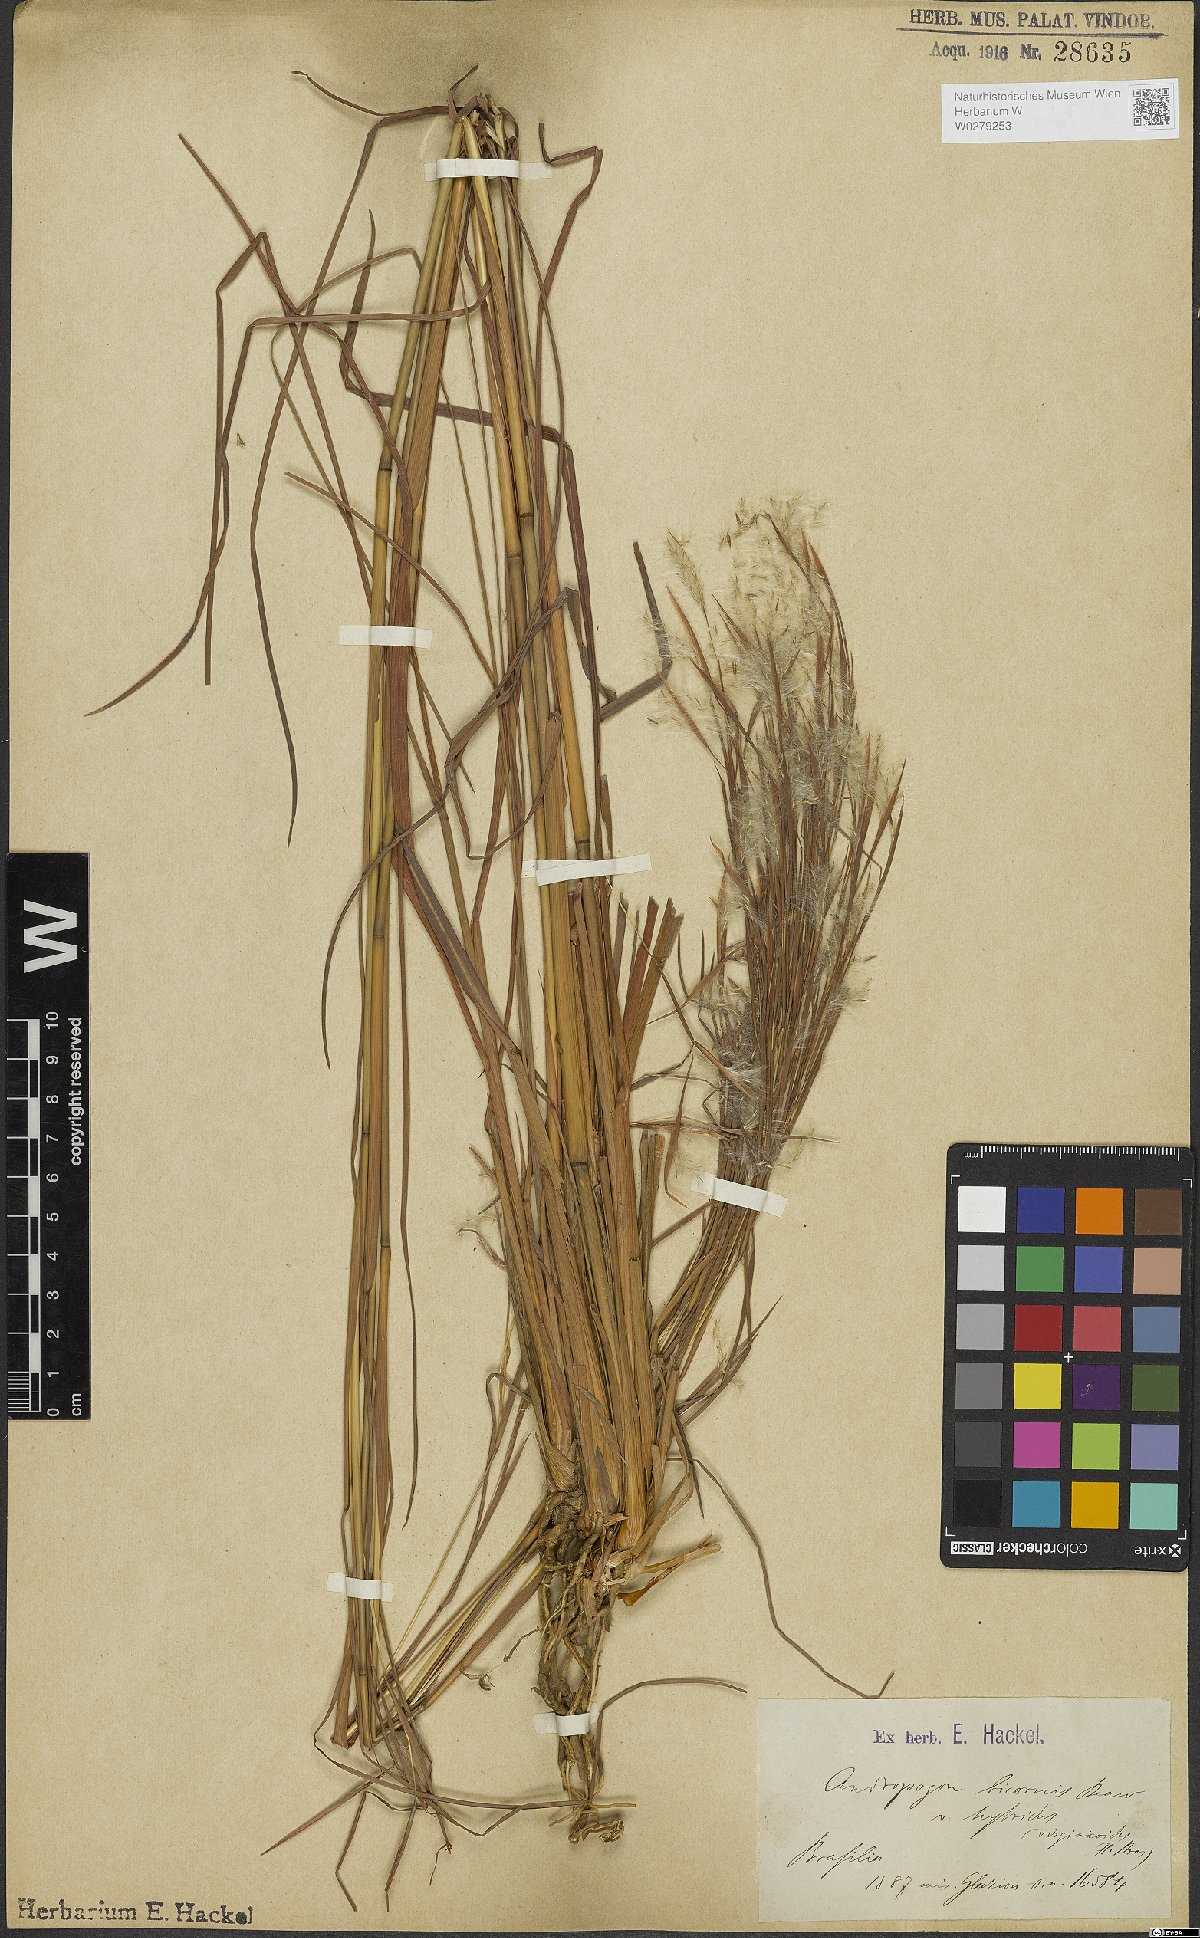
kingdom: Plantae
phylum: Tracheophyta
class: Liliopsida
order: Poales
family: Poaceae
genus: Andropogon
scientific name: Andropogon bicornis
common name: West indian foxtail grass
